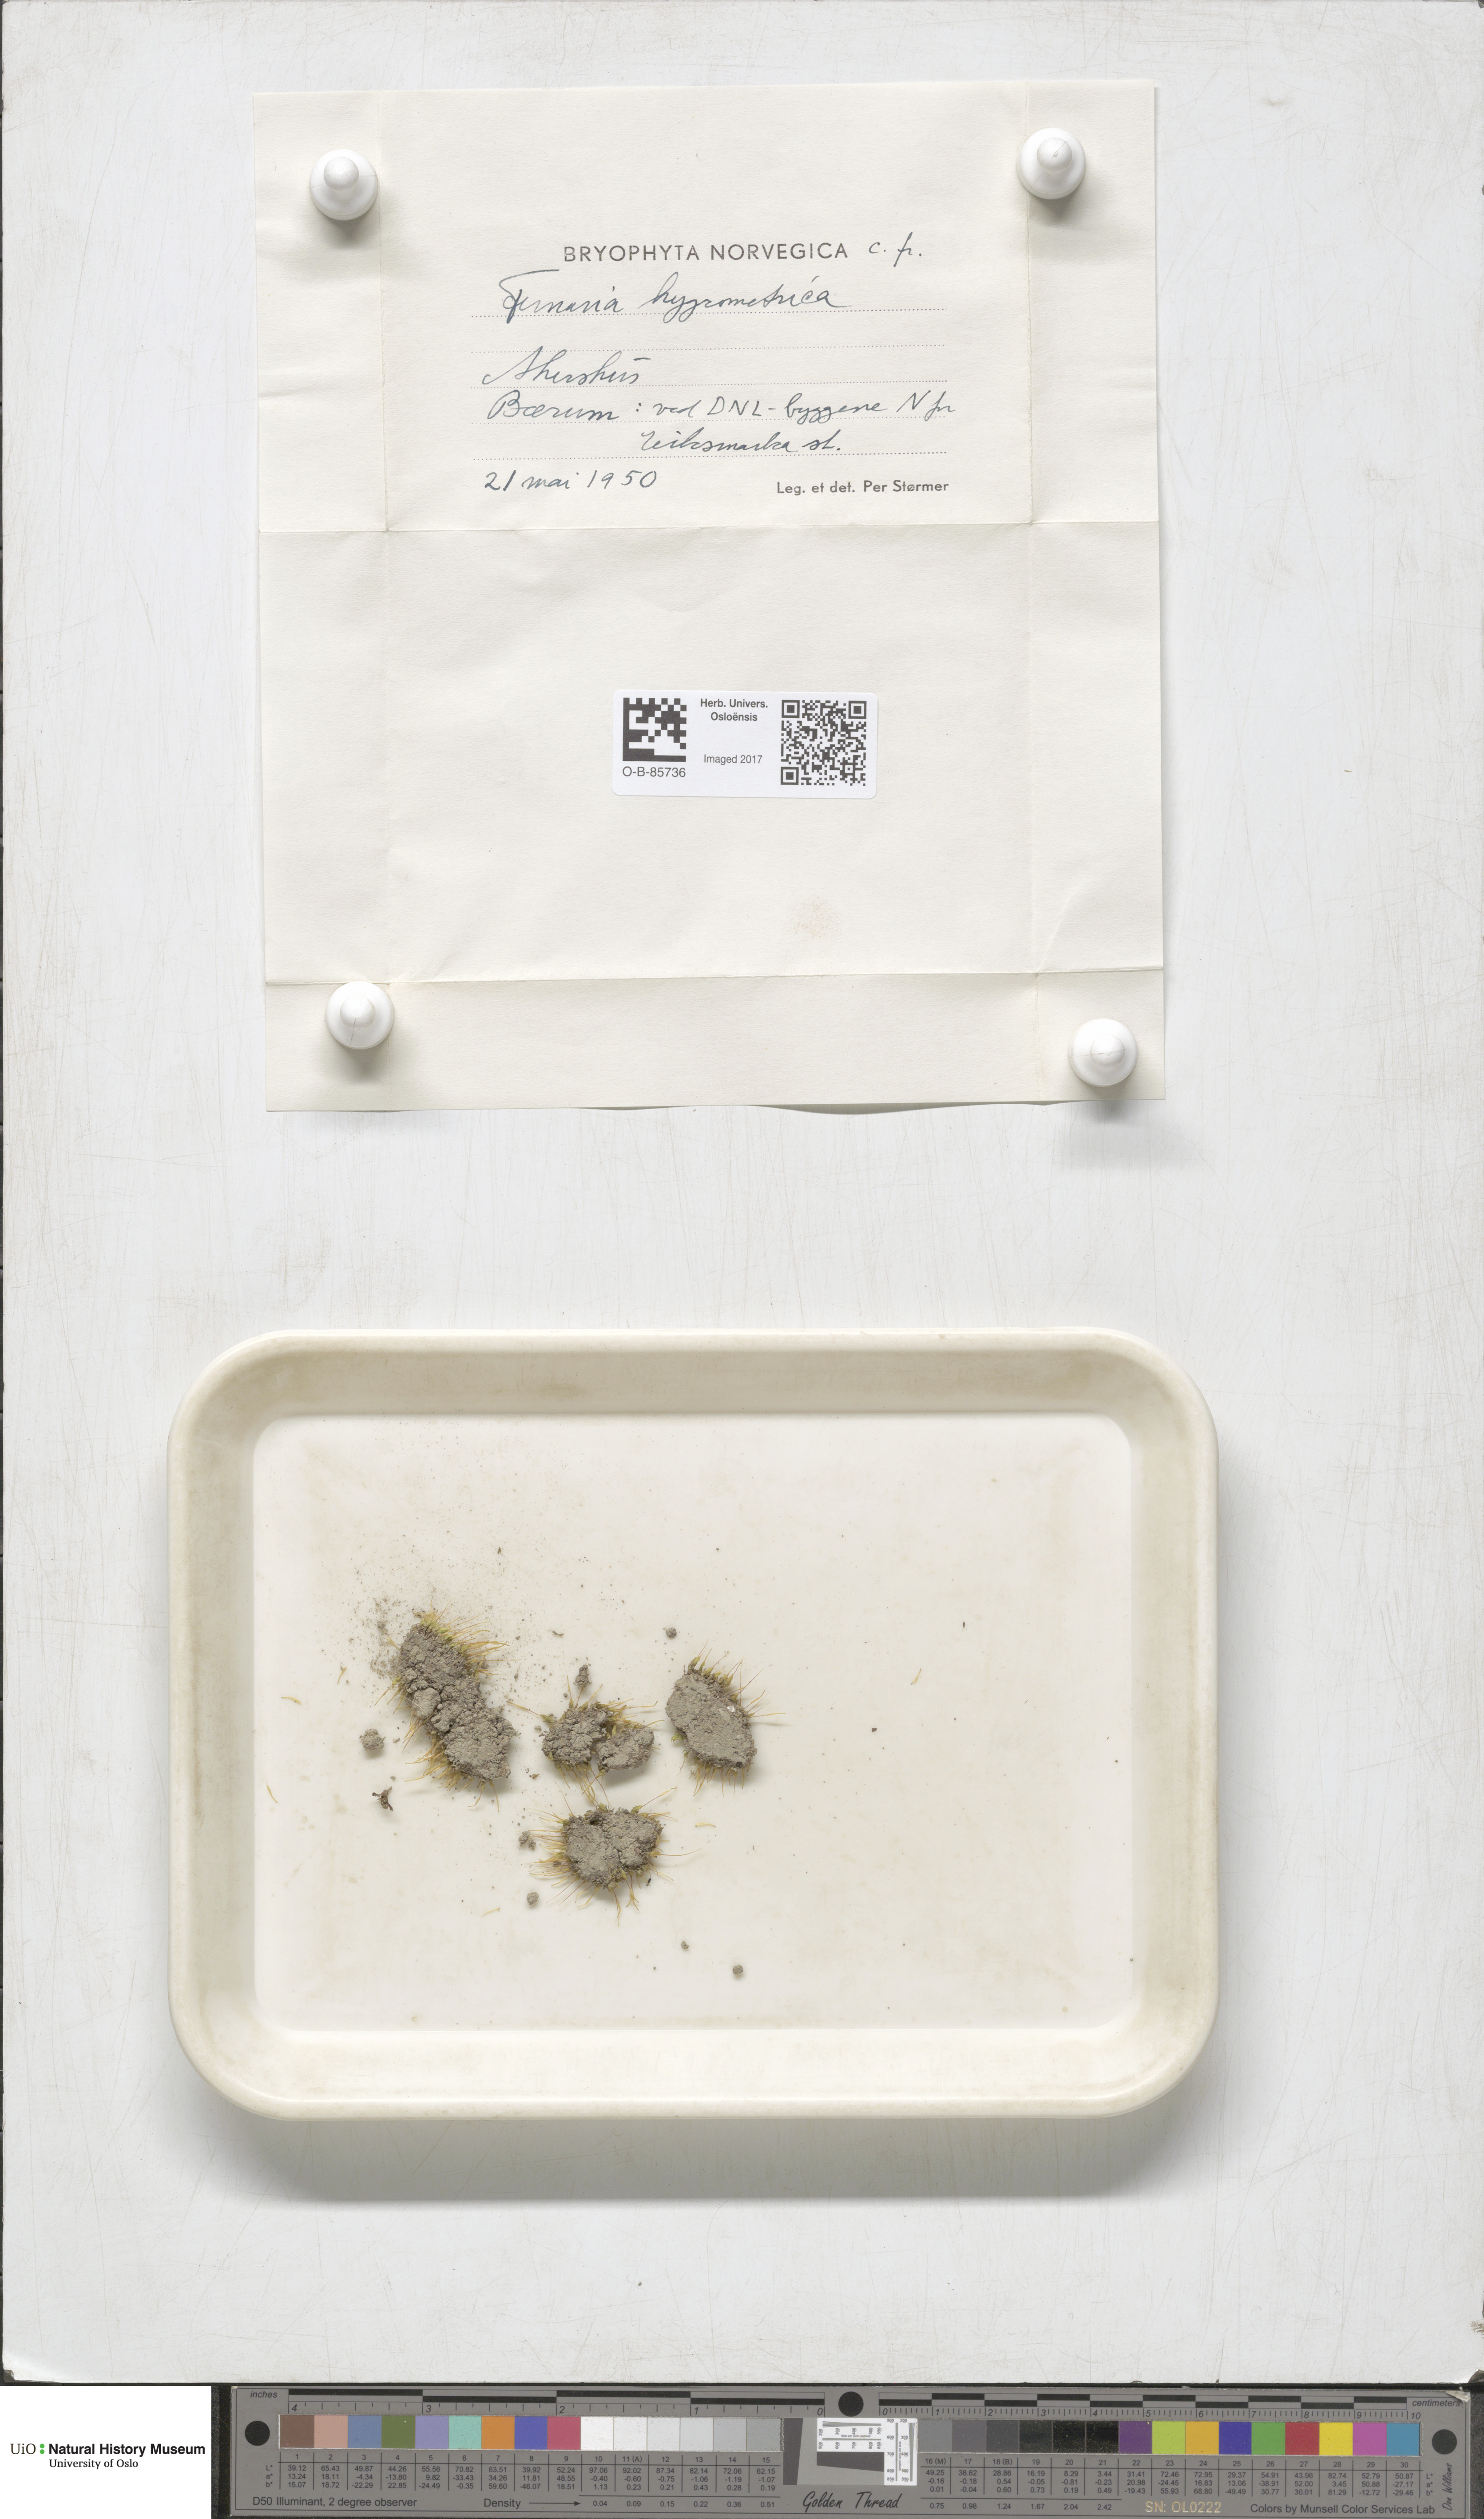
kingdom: Plantae
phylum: Bryophyta
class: Bryopsida
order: Funariales
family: Funariaceae
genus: Funaria
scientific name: Funaria hygrometrica
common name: Common cord moss
